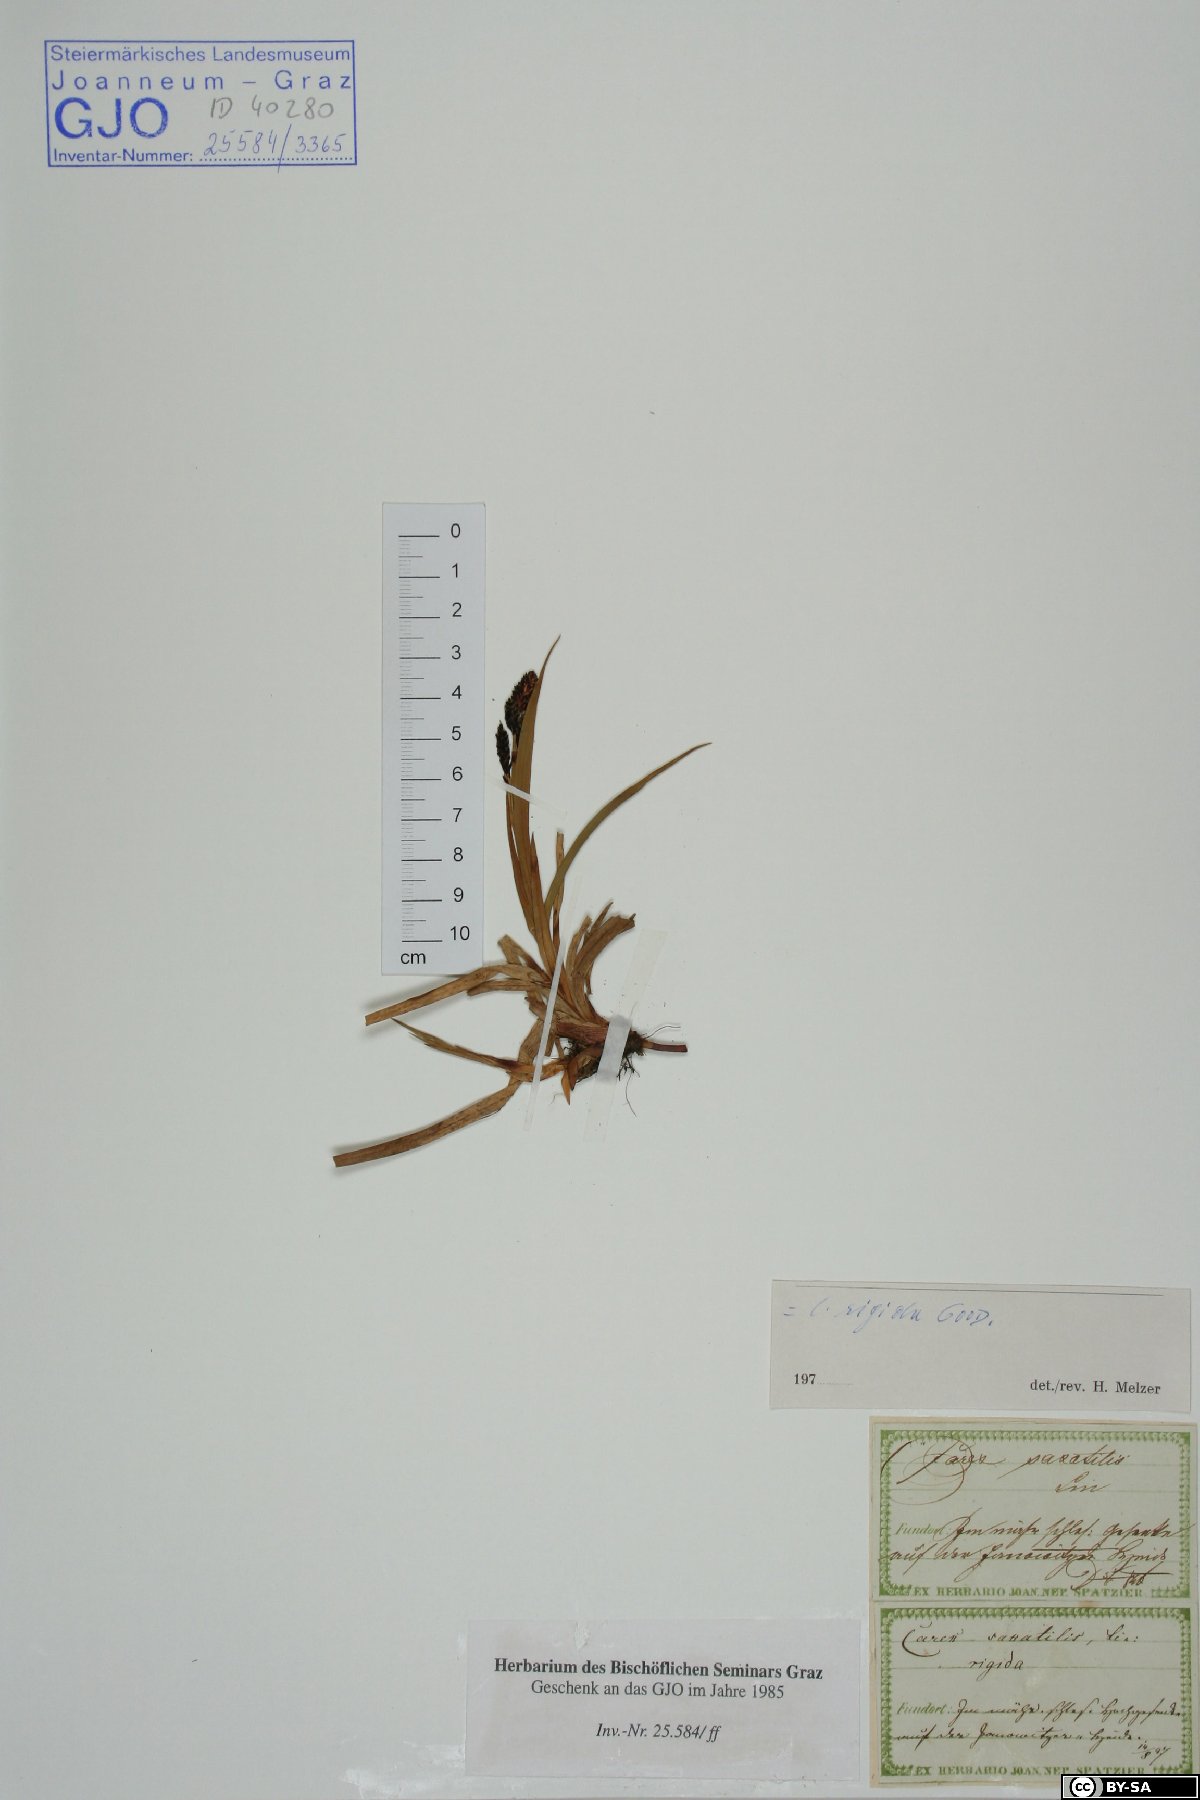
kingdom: Plantae
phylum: Tracheophyta
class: Liliopsida
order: Poales
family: Cyperaceae
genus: Carex
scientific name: Carex dacica
